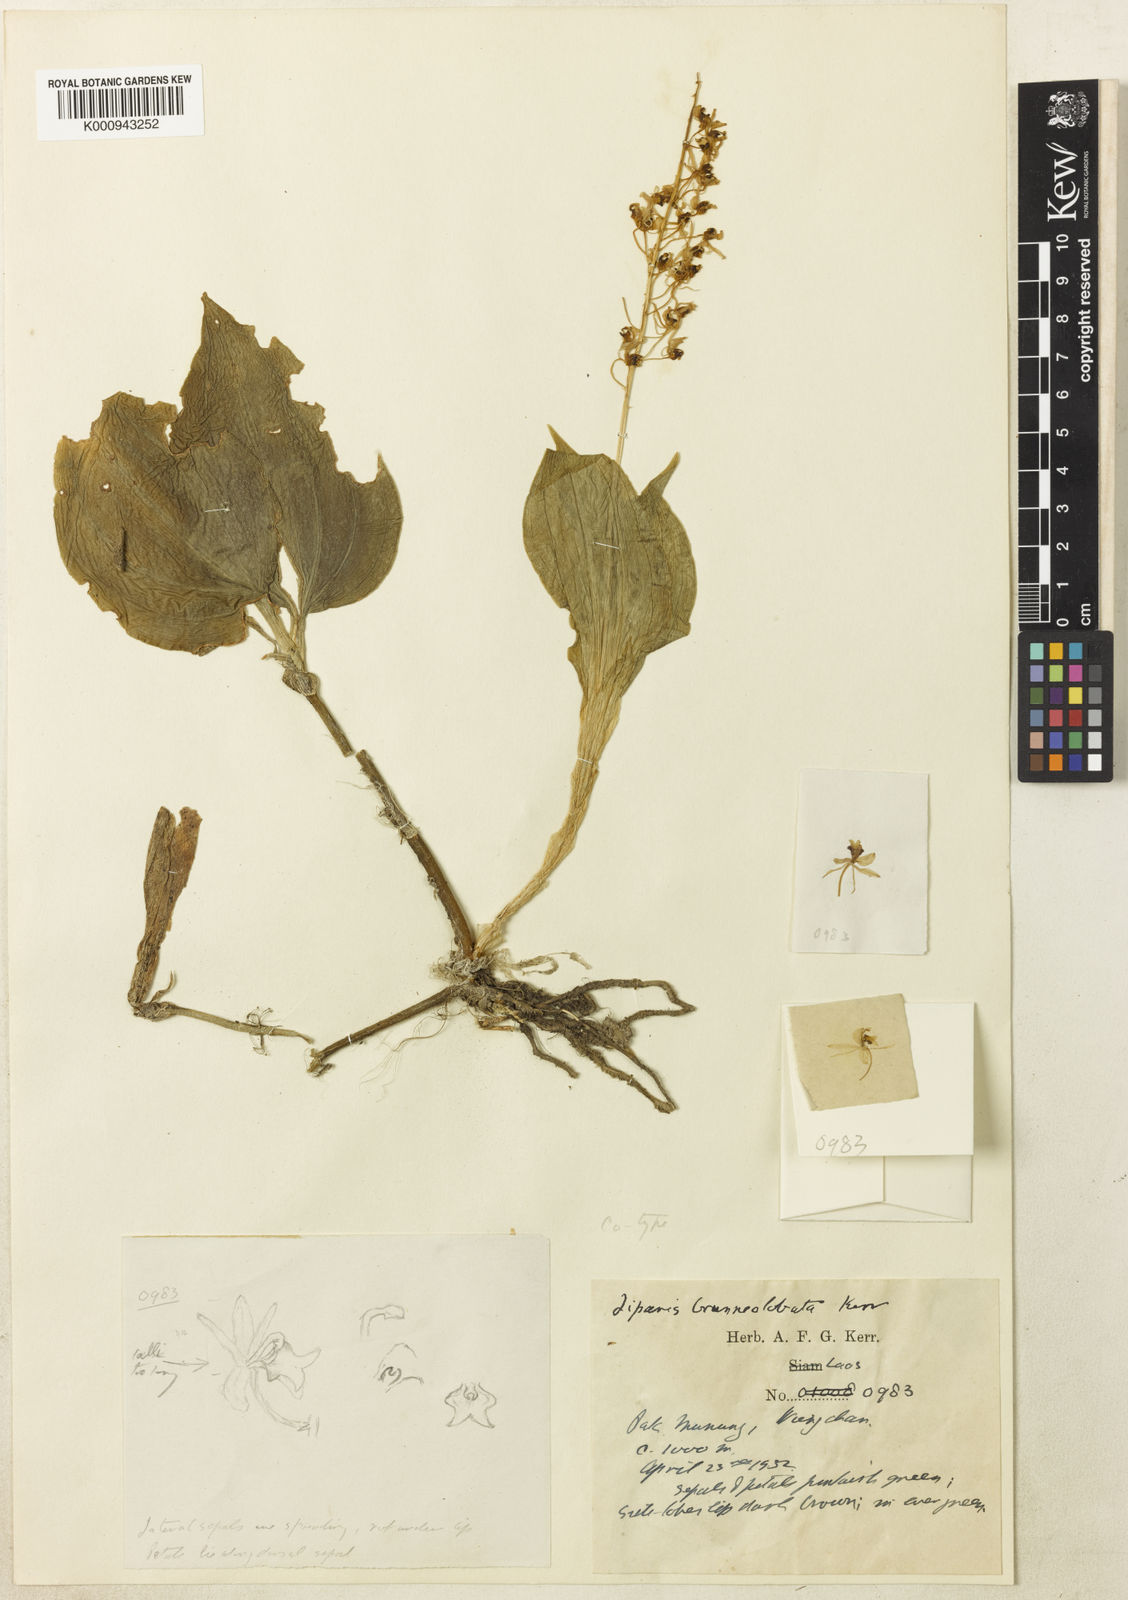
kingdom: Plantae
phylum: Tracheophyta
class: Liliopsida
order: Asparagales
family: Orchidaceae
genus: Liparis
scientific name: Liparis brunneolobata
